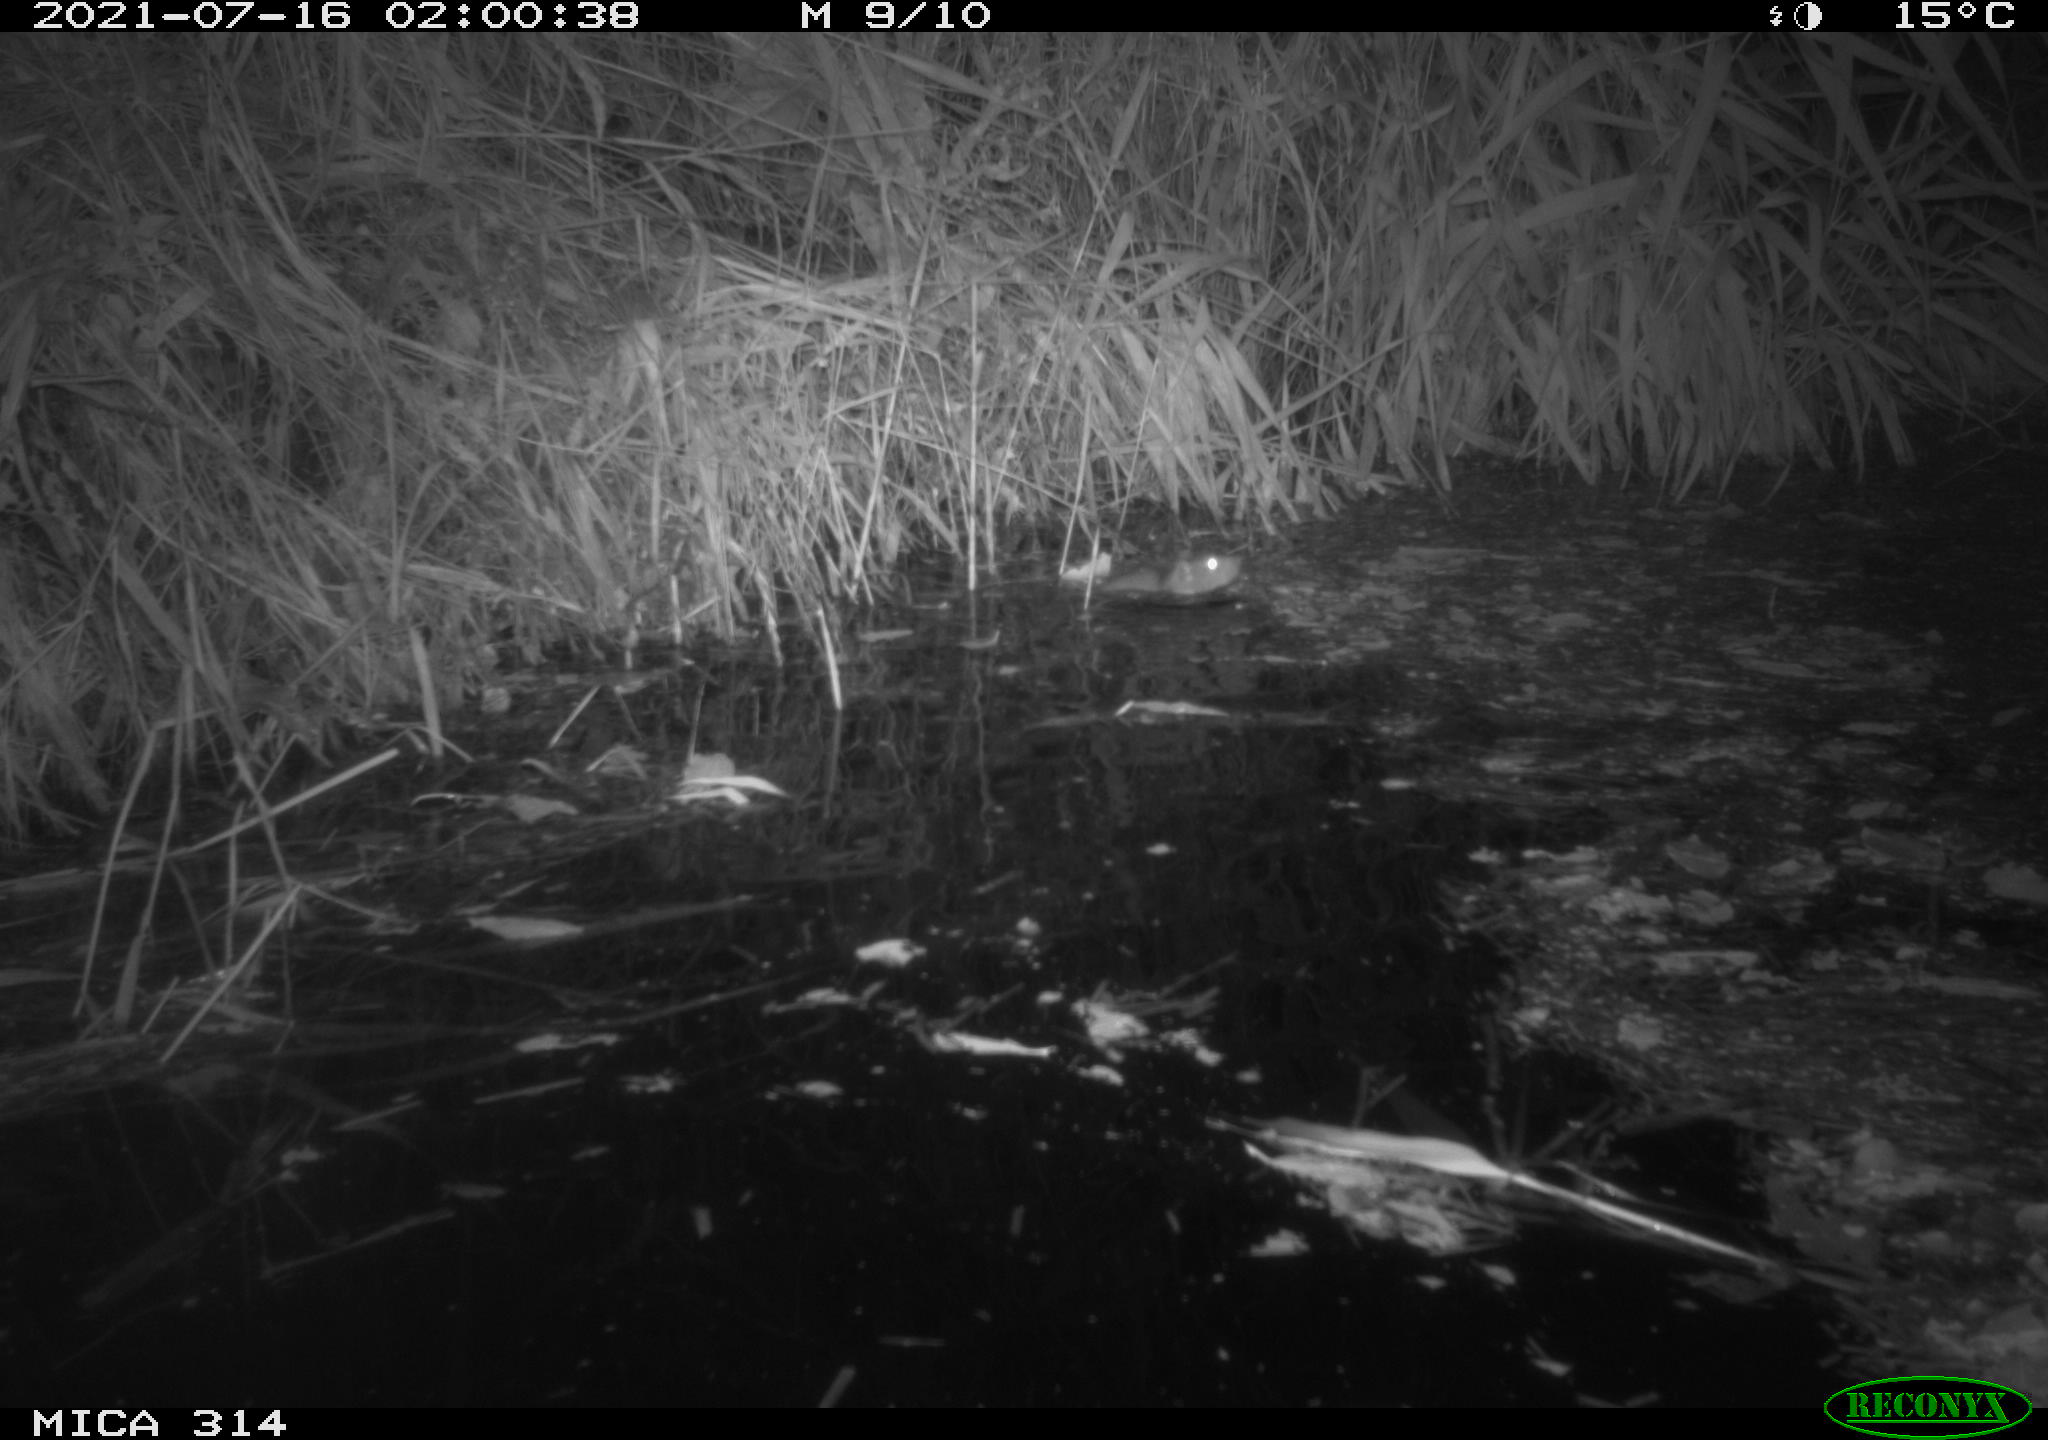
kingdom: Animalia
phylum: Chordata
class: Mammalia
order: Rodentia
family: Muridae
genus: Rattus
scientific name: Rattus norvegicus
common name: Brown rat
